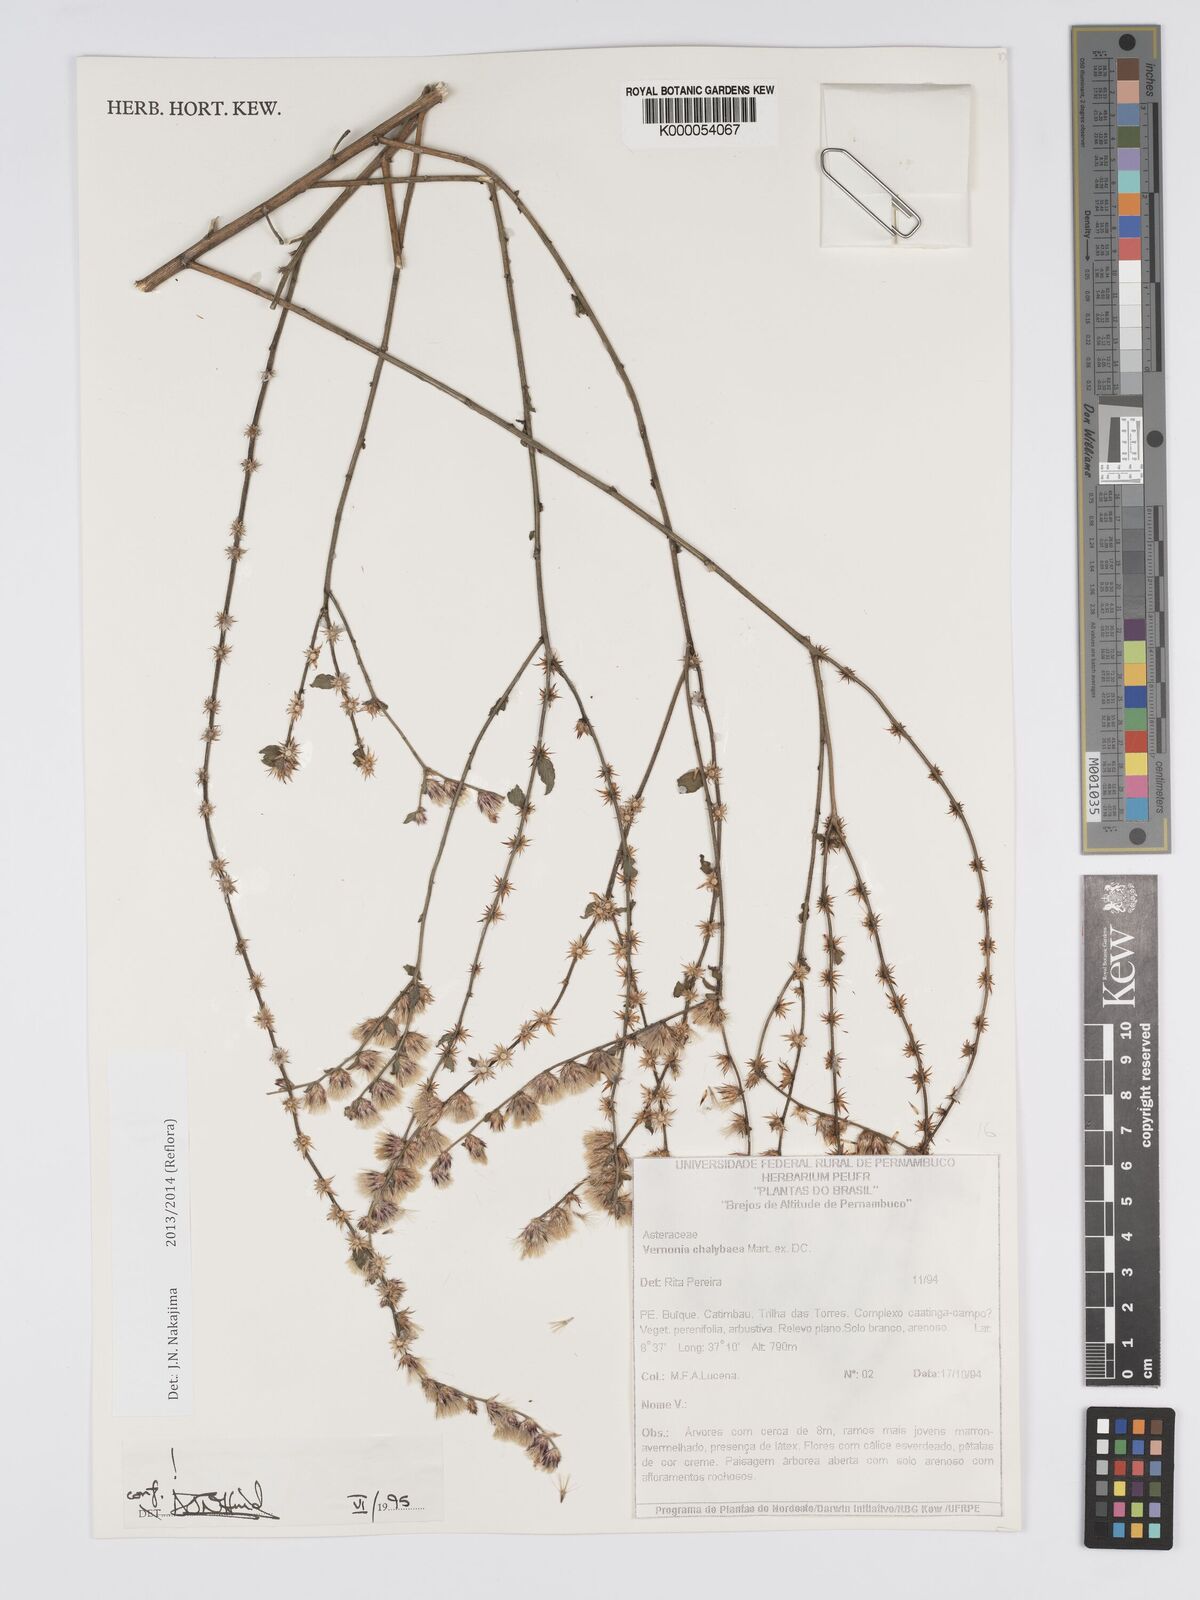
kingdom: Plantae
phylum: Tracheophyta
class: Magnoliopsida
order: Asterales
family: Asteraceae
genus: Lepidaploa
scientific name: Lepidaploa chalybaea
